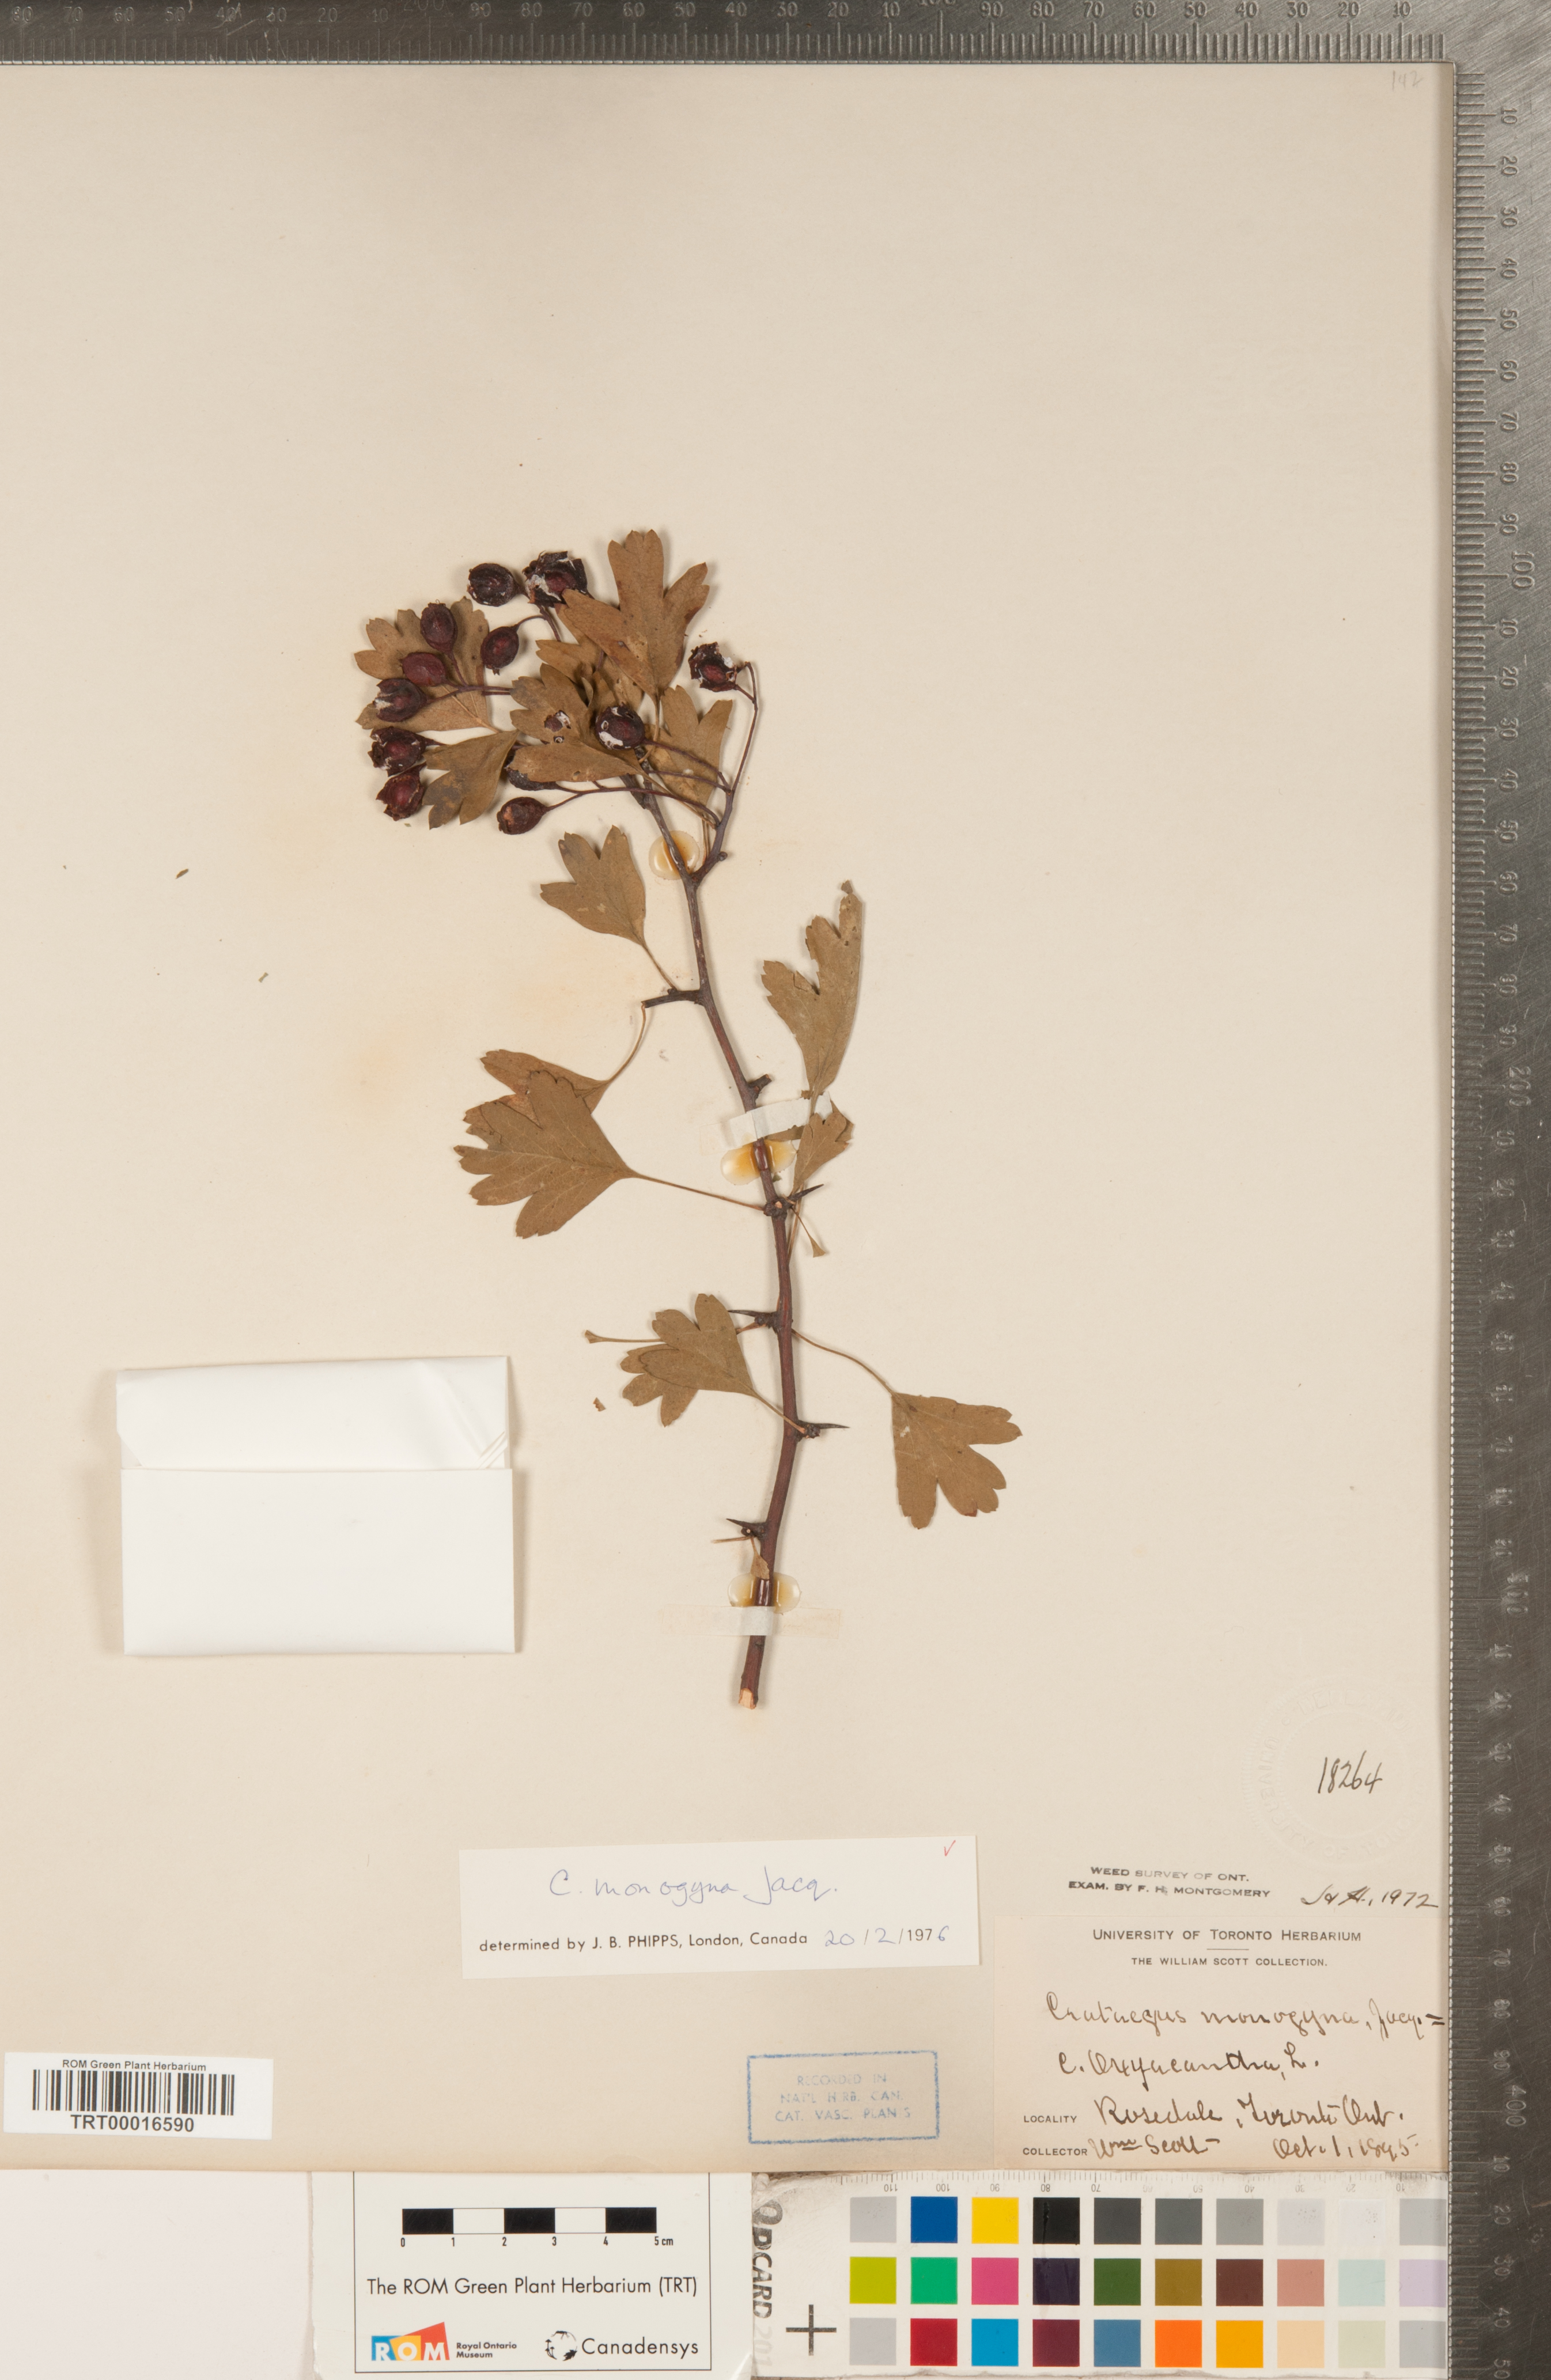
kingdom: Plantae
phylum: Tracheophyta
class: Magnoliopsida
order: Rosales
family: Rosaceae
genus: Crataegus
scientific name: Crataegus monogyna
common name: Hawthorn
